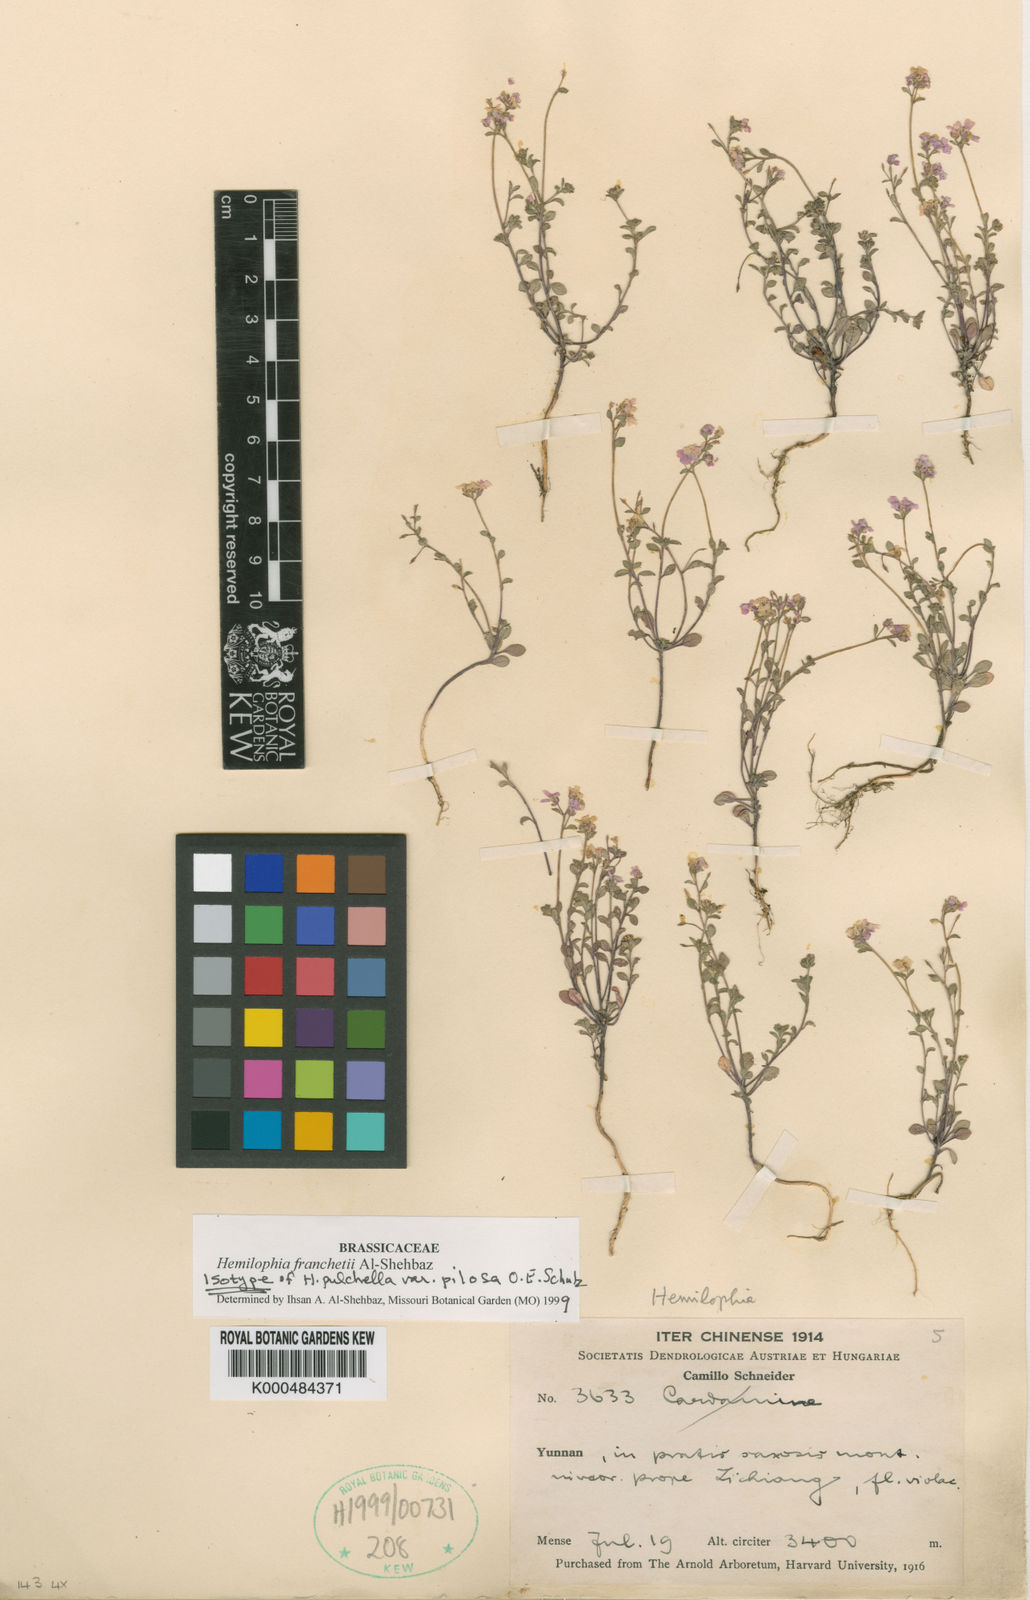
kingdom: Plantae
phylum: Tracheophyta
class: Magnoliopsida
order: Brassicales
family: Brassicaceae
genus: Hemilophia
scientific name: Hemilophia
